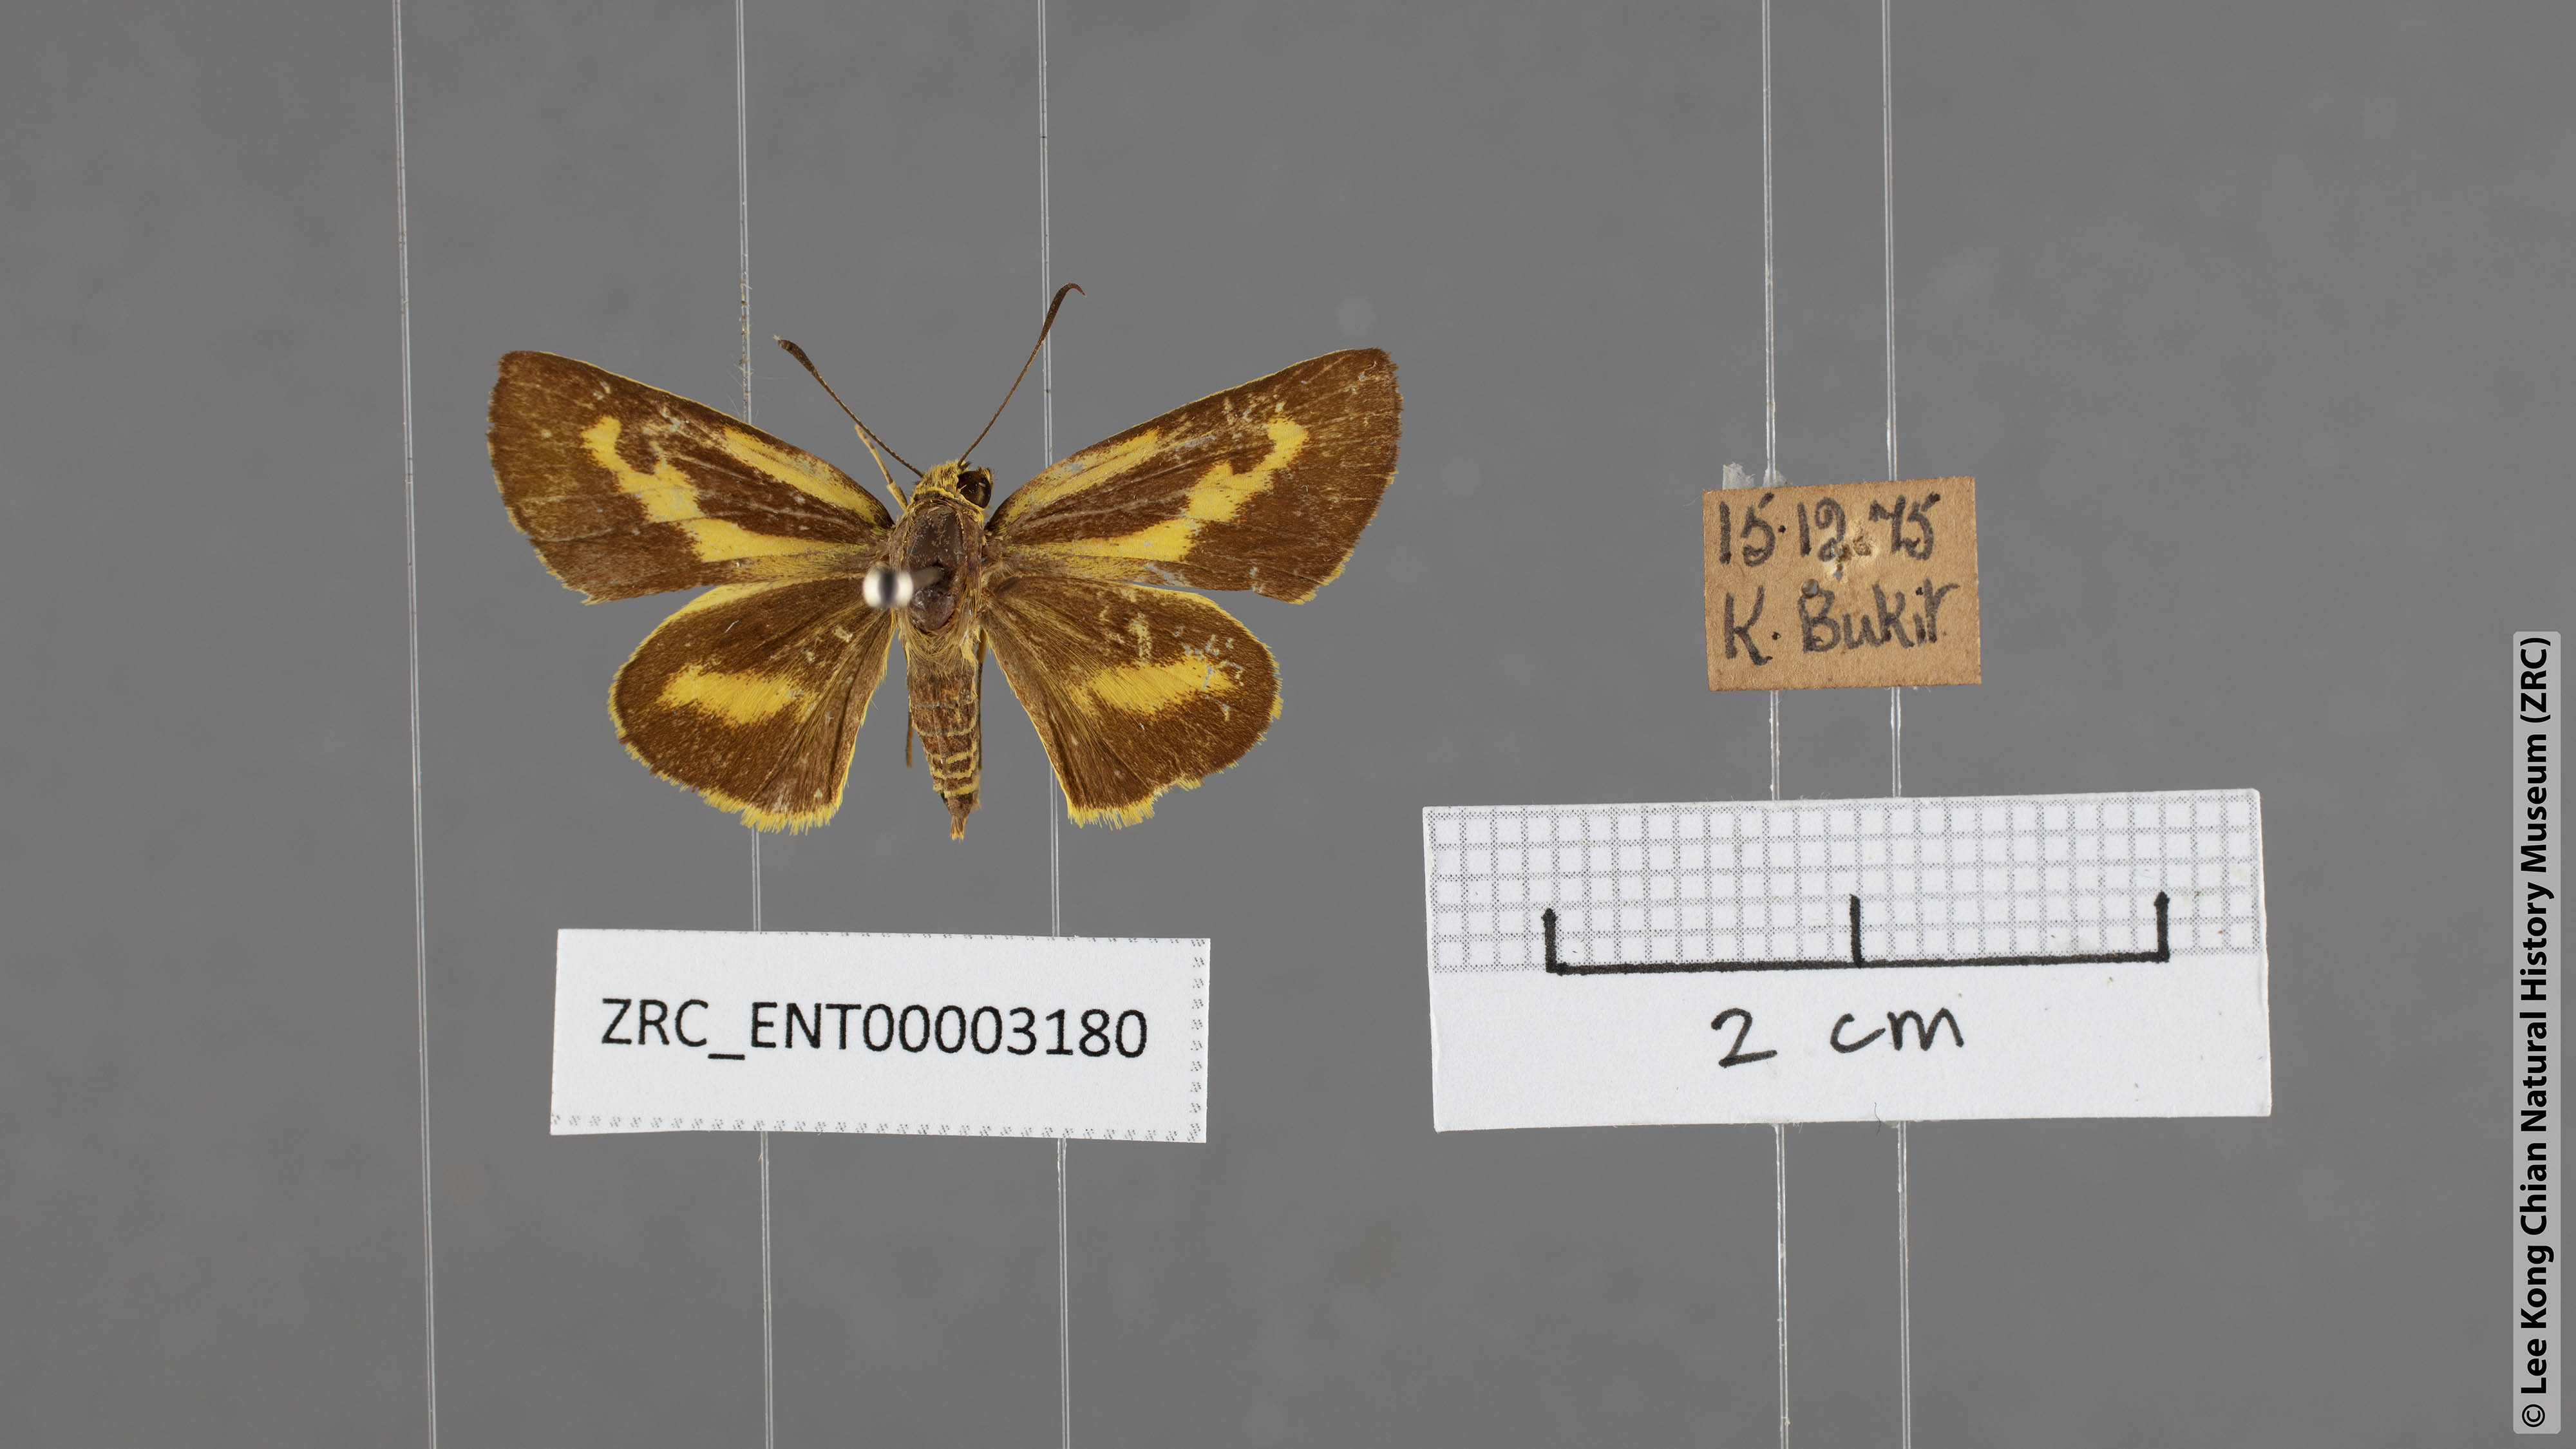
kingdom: Animalia
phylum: Arthropoda
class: Insecta
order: Lepidoptera
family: Hesperiidae
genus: Cupitha
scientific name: Cupitha purreea
